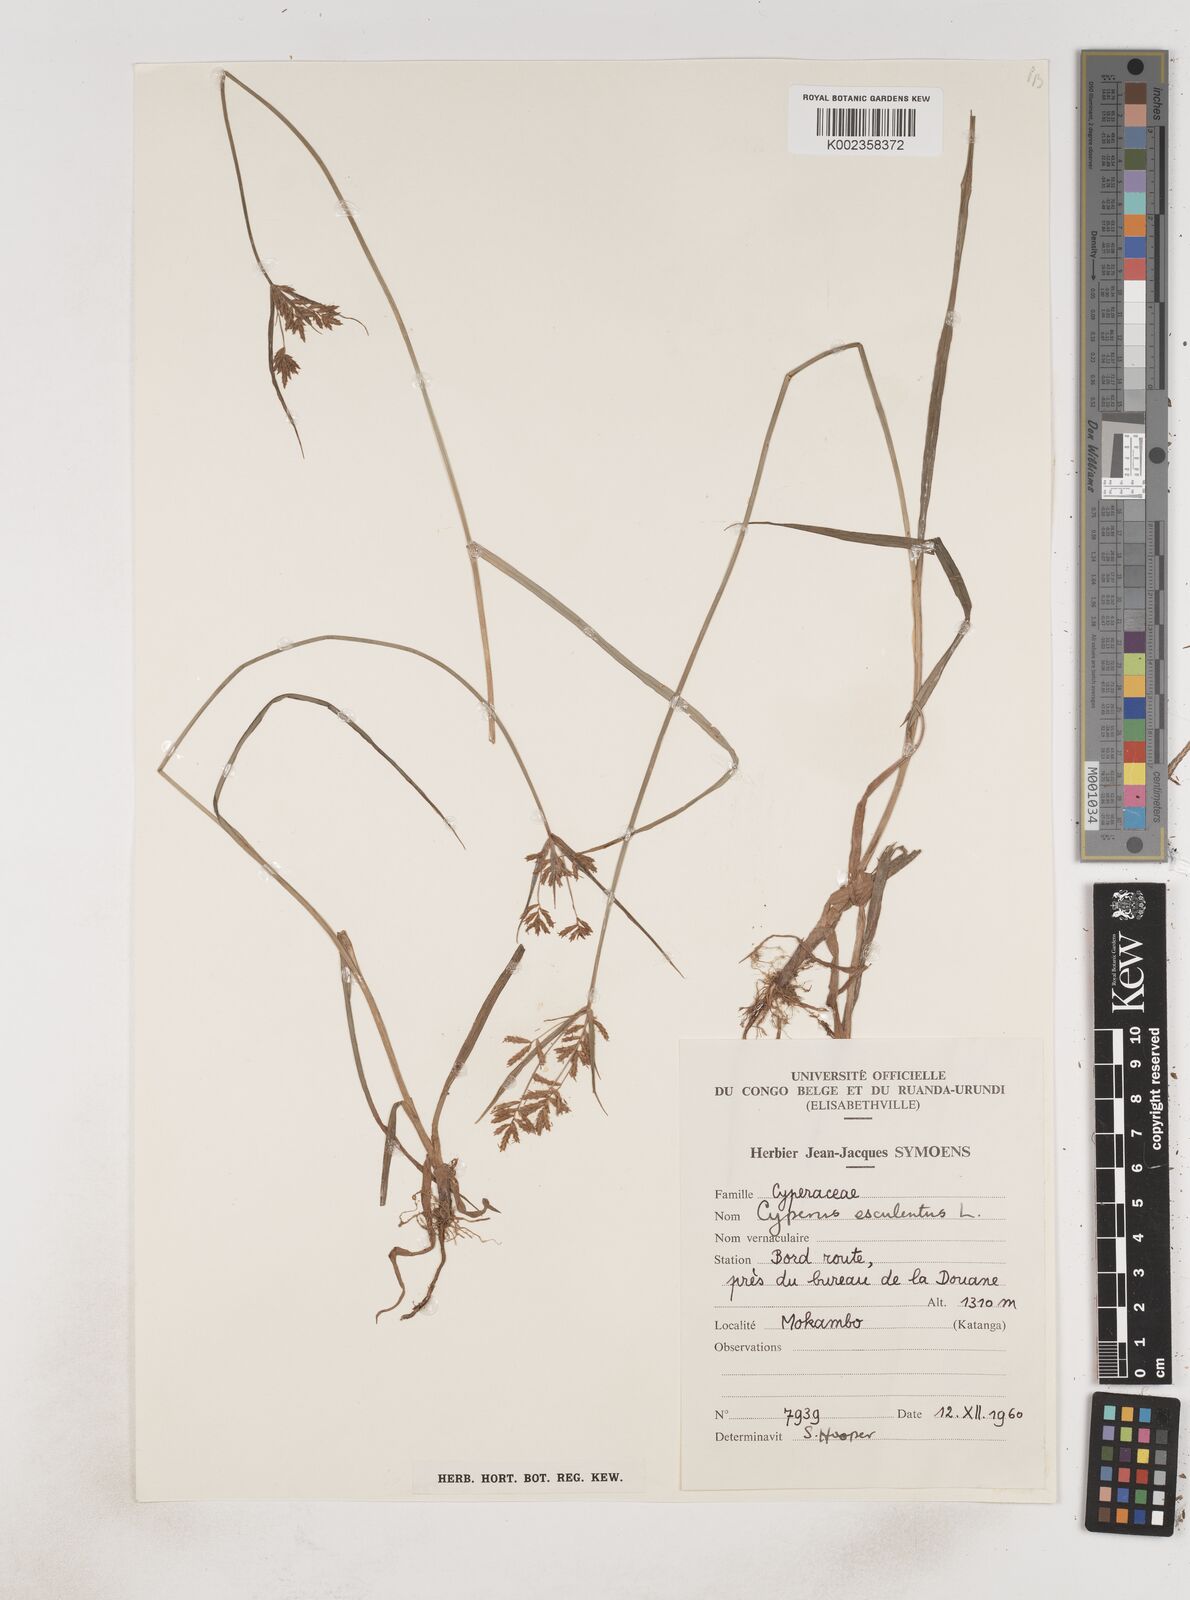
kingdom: Plantae
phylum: Tracheophyta
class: Liliopsida
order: Poales
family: Cyperaceae
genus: Cyperus
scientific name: Cyperus esculentus
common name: Yellow nutsedge
